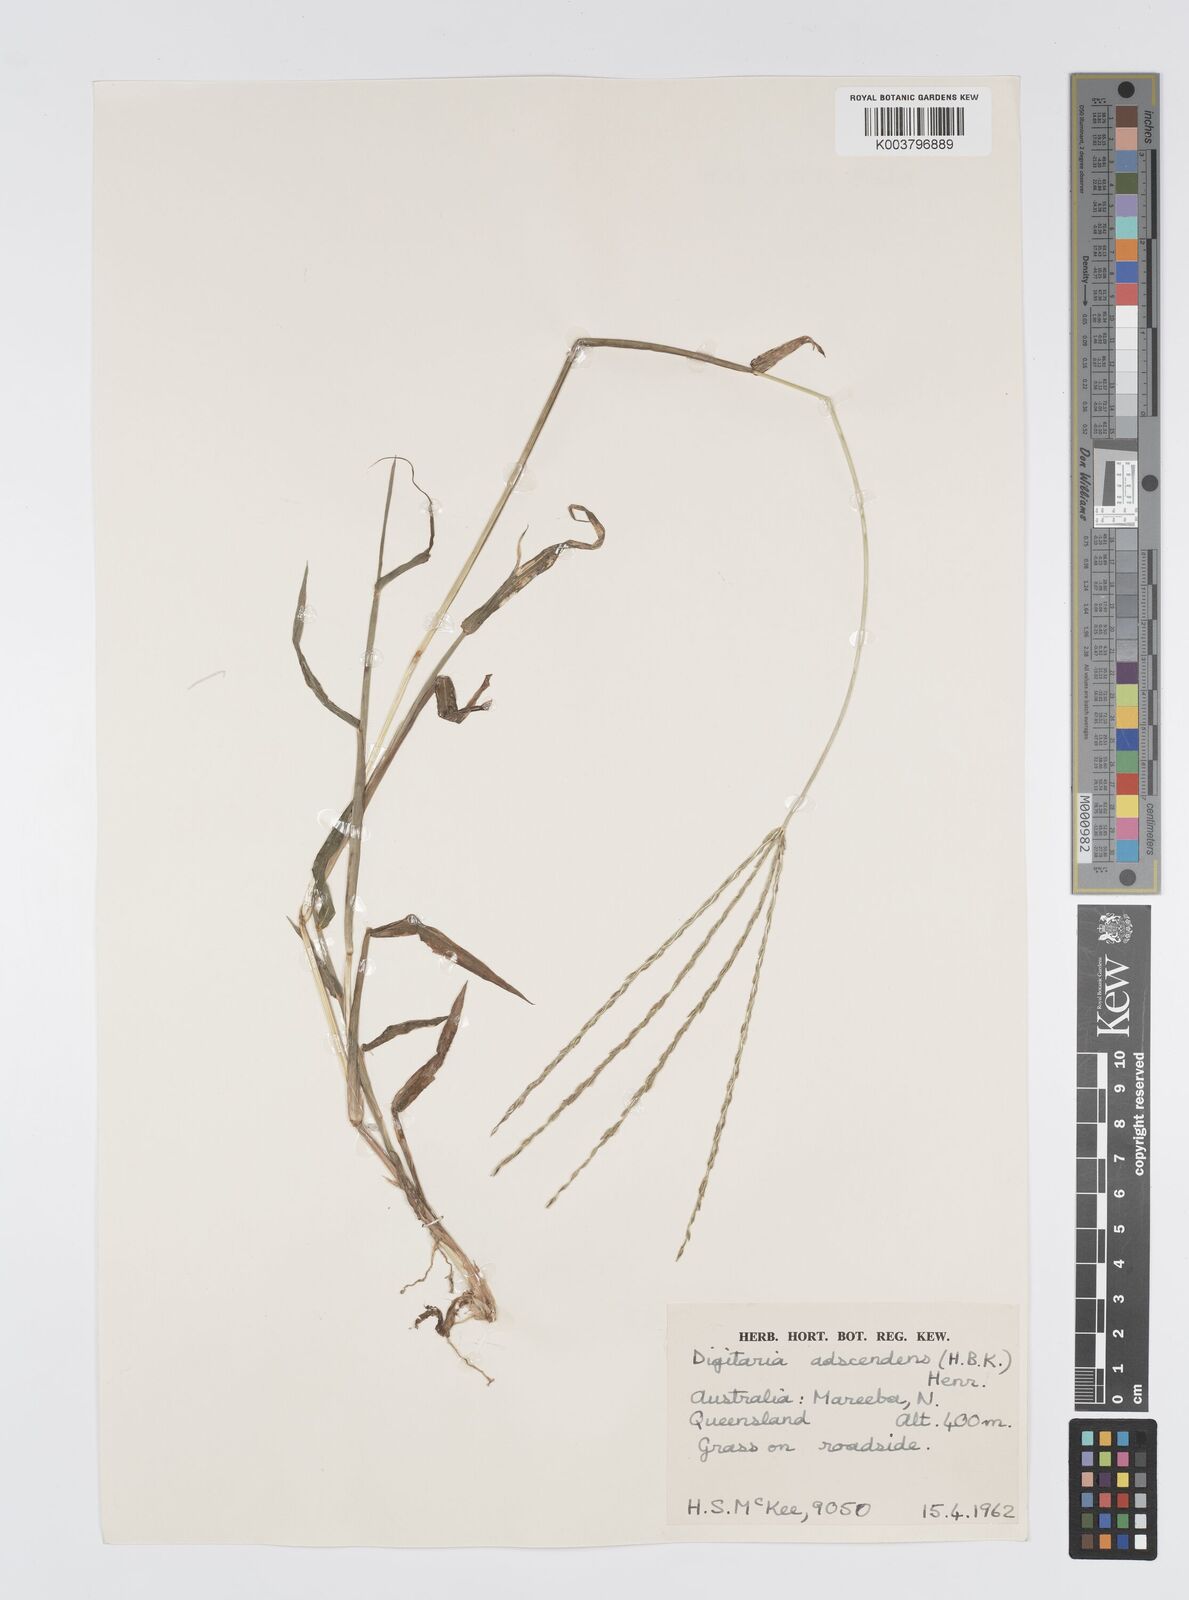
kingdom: Plantae
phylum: Tracheophyta
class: Liliopsida
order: Poales
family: Poaceae
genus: Digitaria
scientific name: Digitaria bicornis
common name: Asian crabgrass
